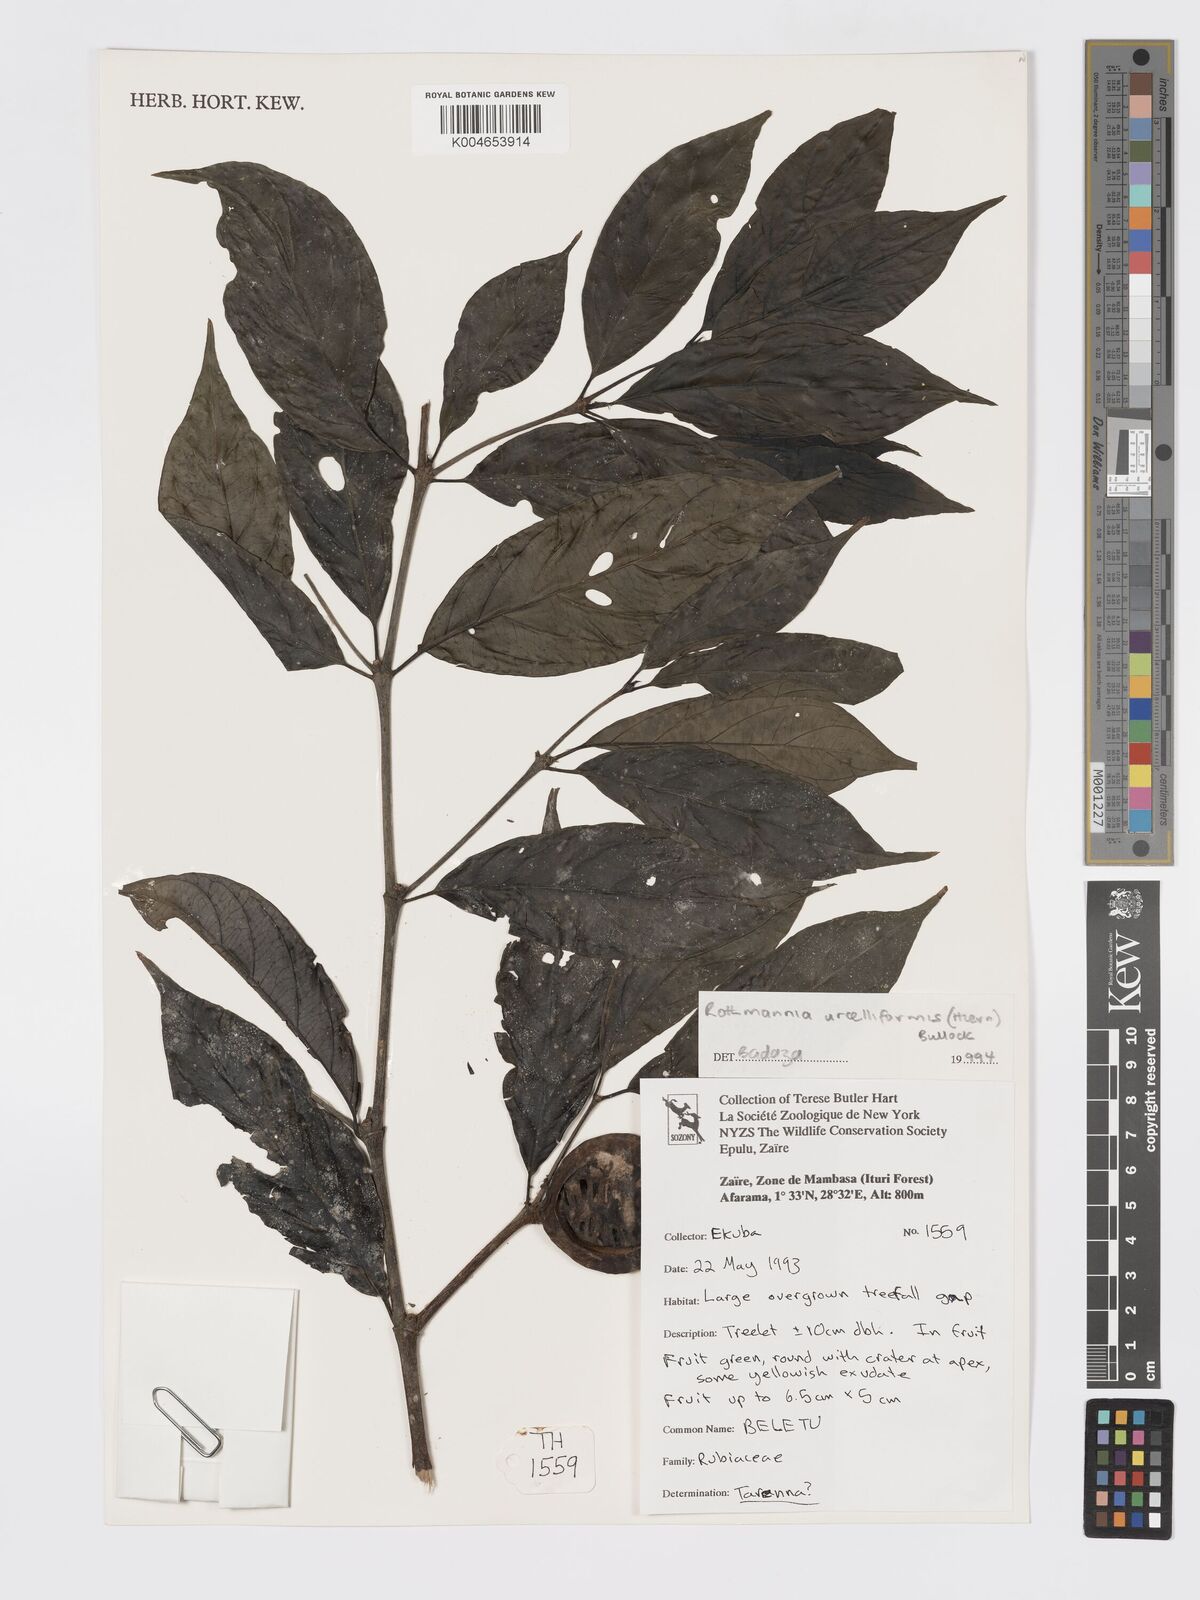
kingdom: Plantae
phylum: Tracheophyta
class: Magnoliopsida
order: Gentianales
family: Rubiaceae
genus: Rothmannia
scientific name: Rothmannia urcelliformis
